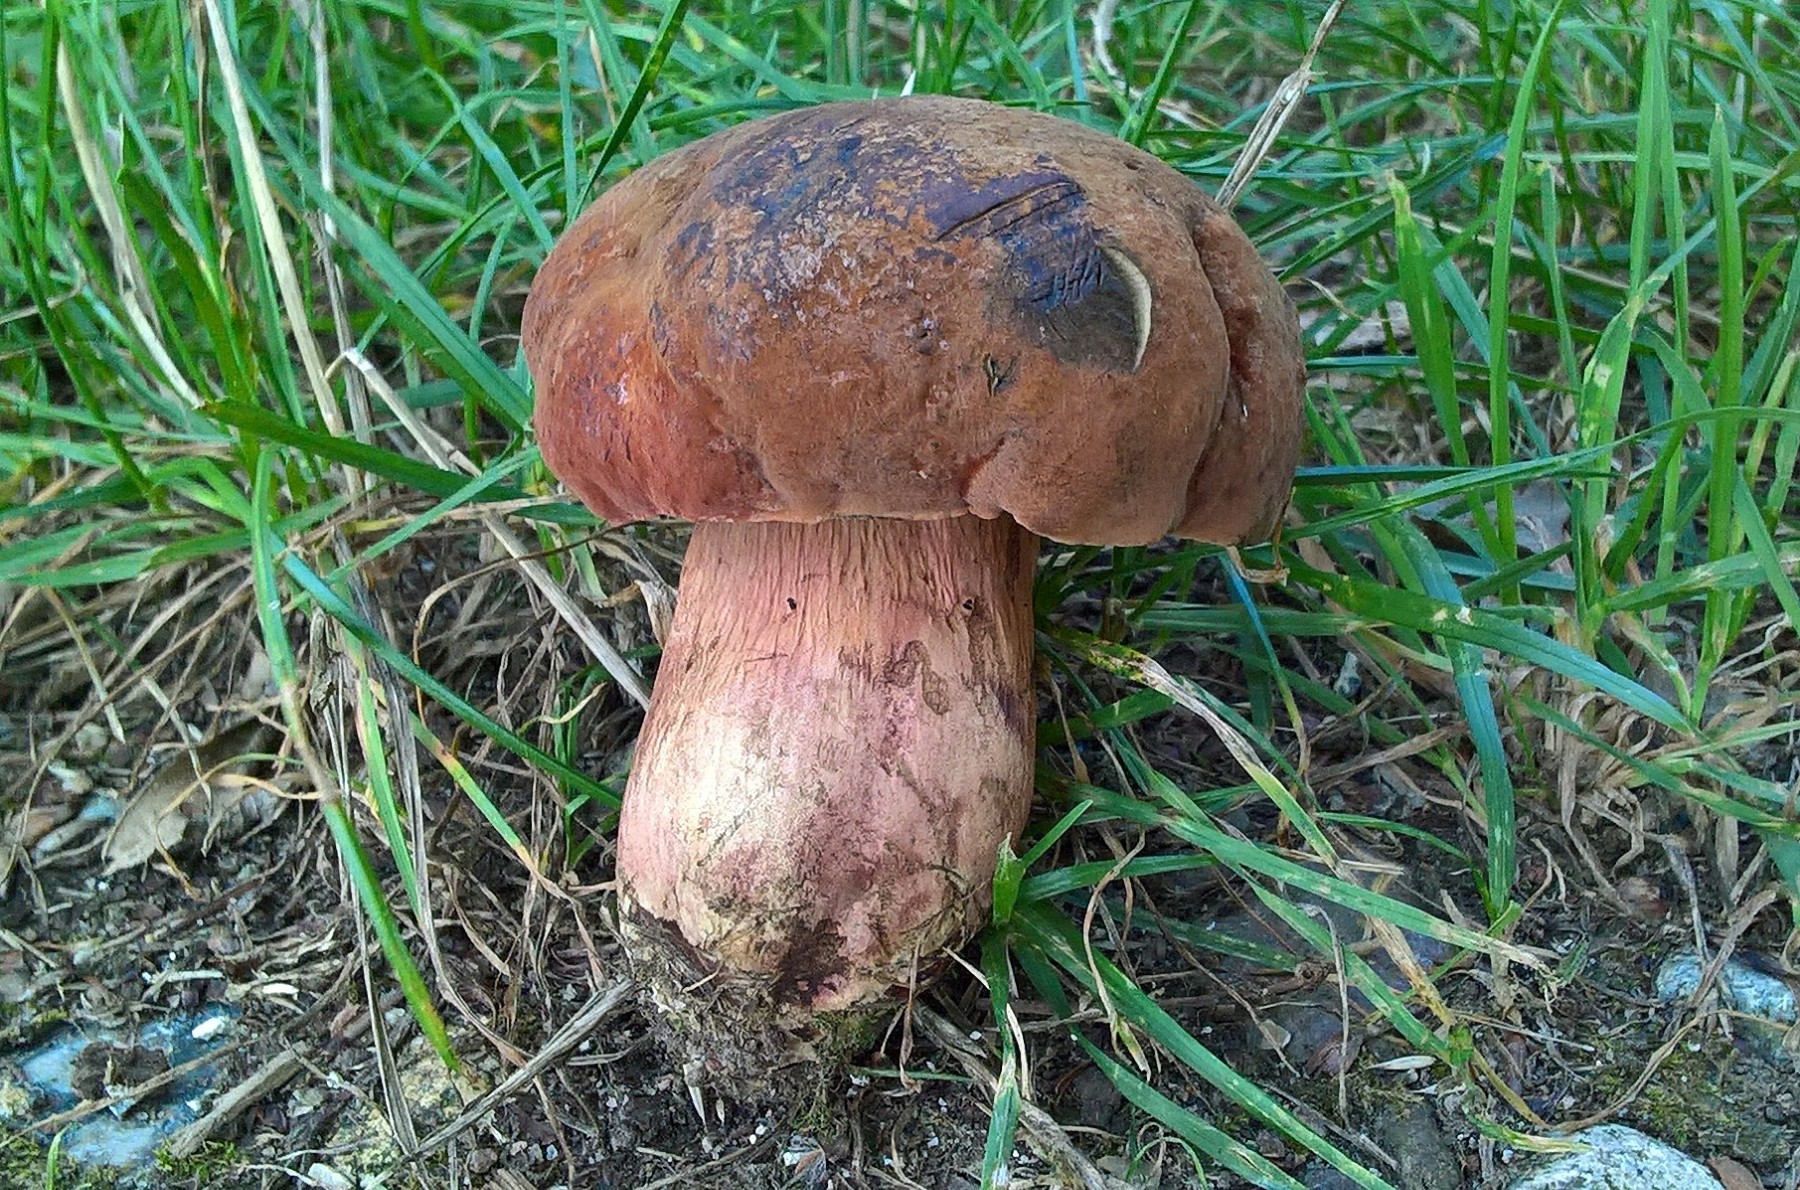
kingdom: Fungi
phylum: Basidiomycota
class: Agaricomycetes
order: Boletales
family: Boletaceae
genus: Suillellus
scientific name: Suillellus luridus
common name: netstokket indigorørhat
